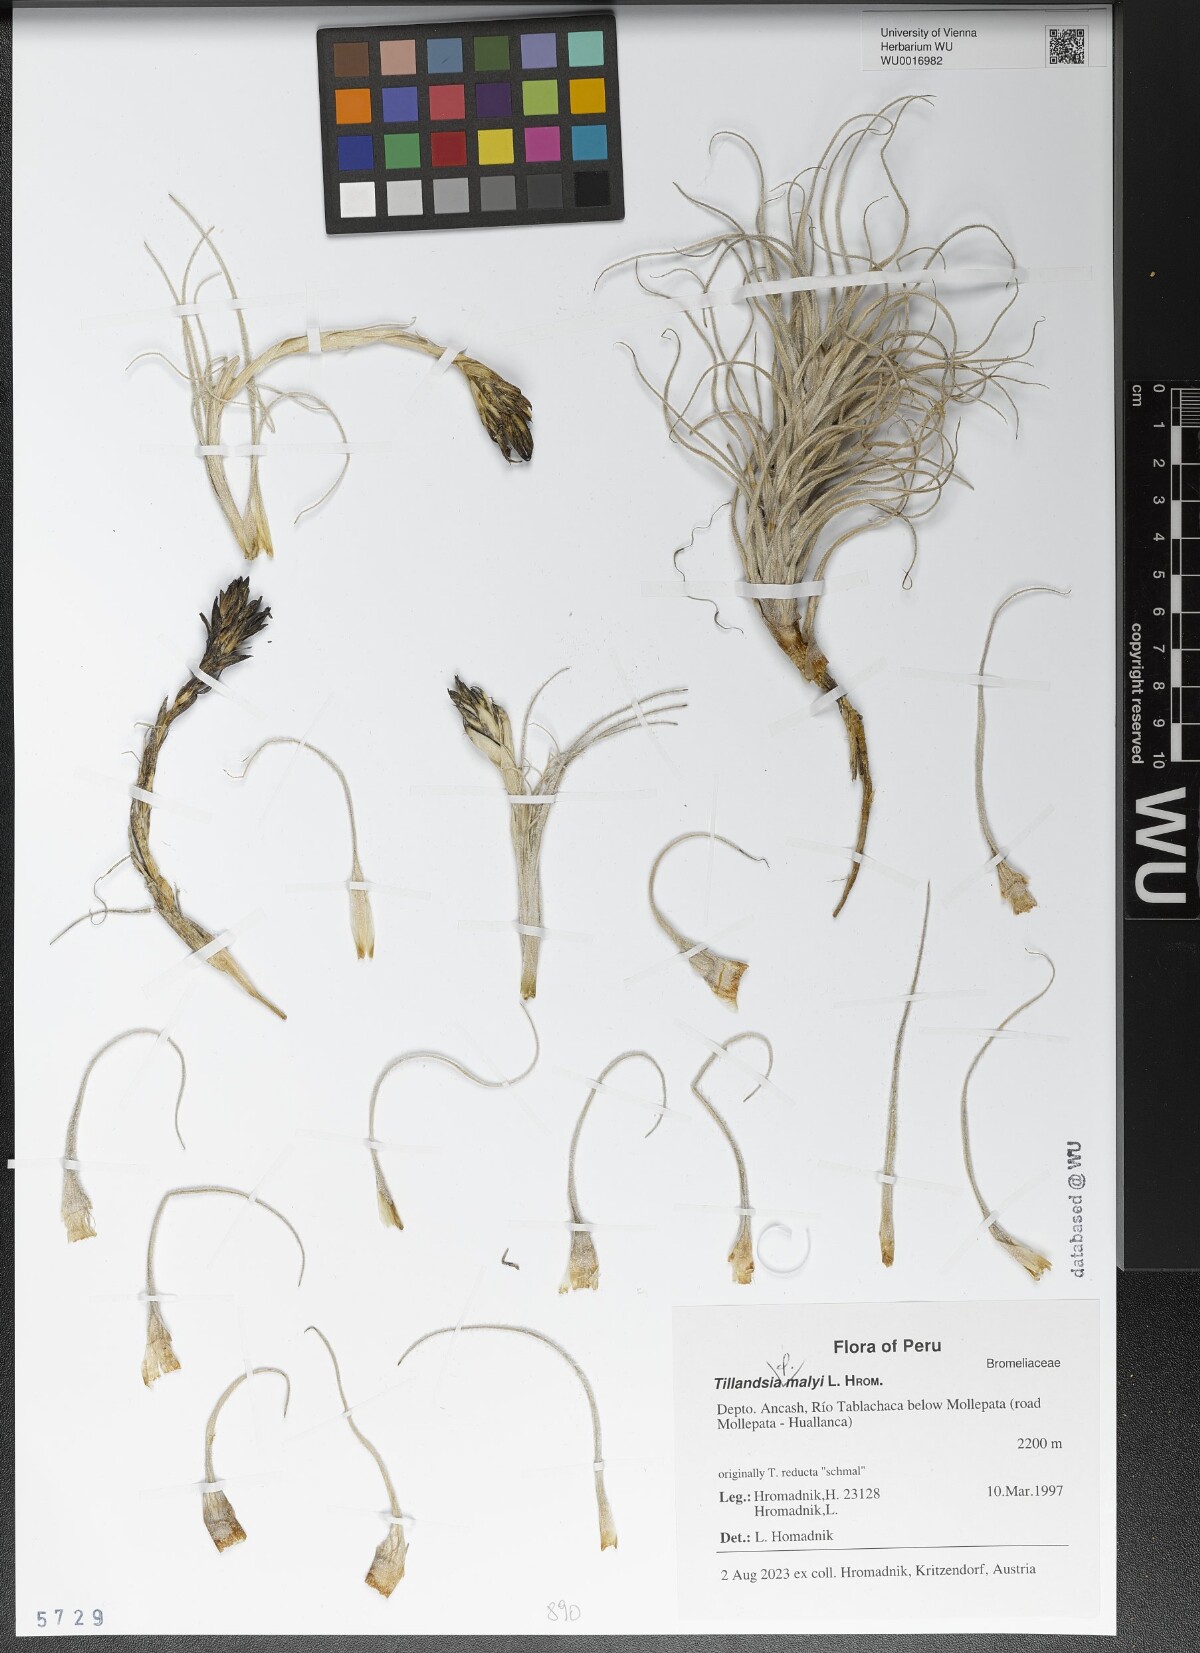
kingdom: Plantae
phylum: Tracheophyta
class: Liliopsida
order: Poales
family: Bromeliaceae
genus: Tillandsia
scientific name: Tillandsia malyi
